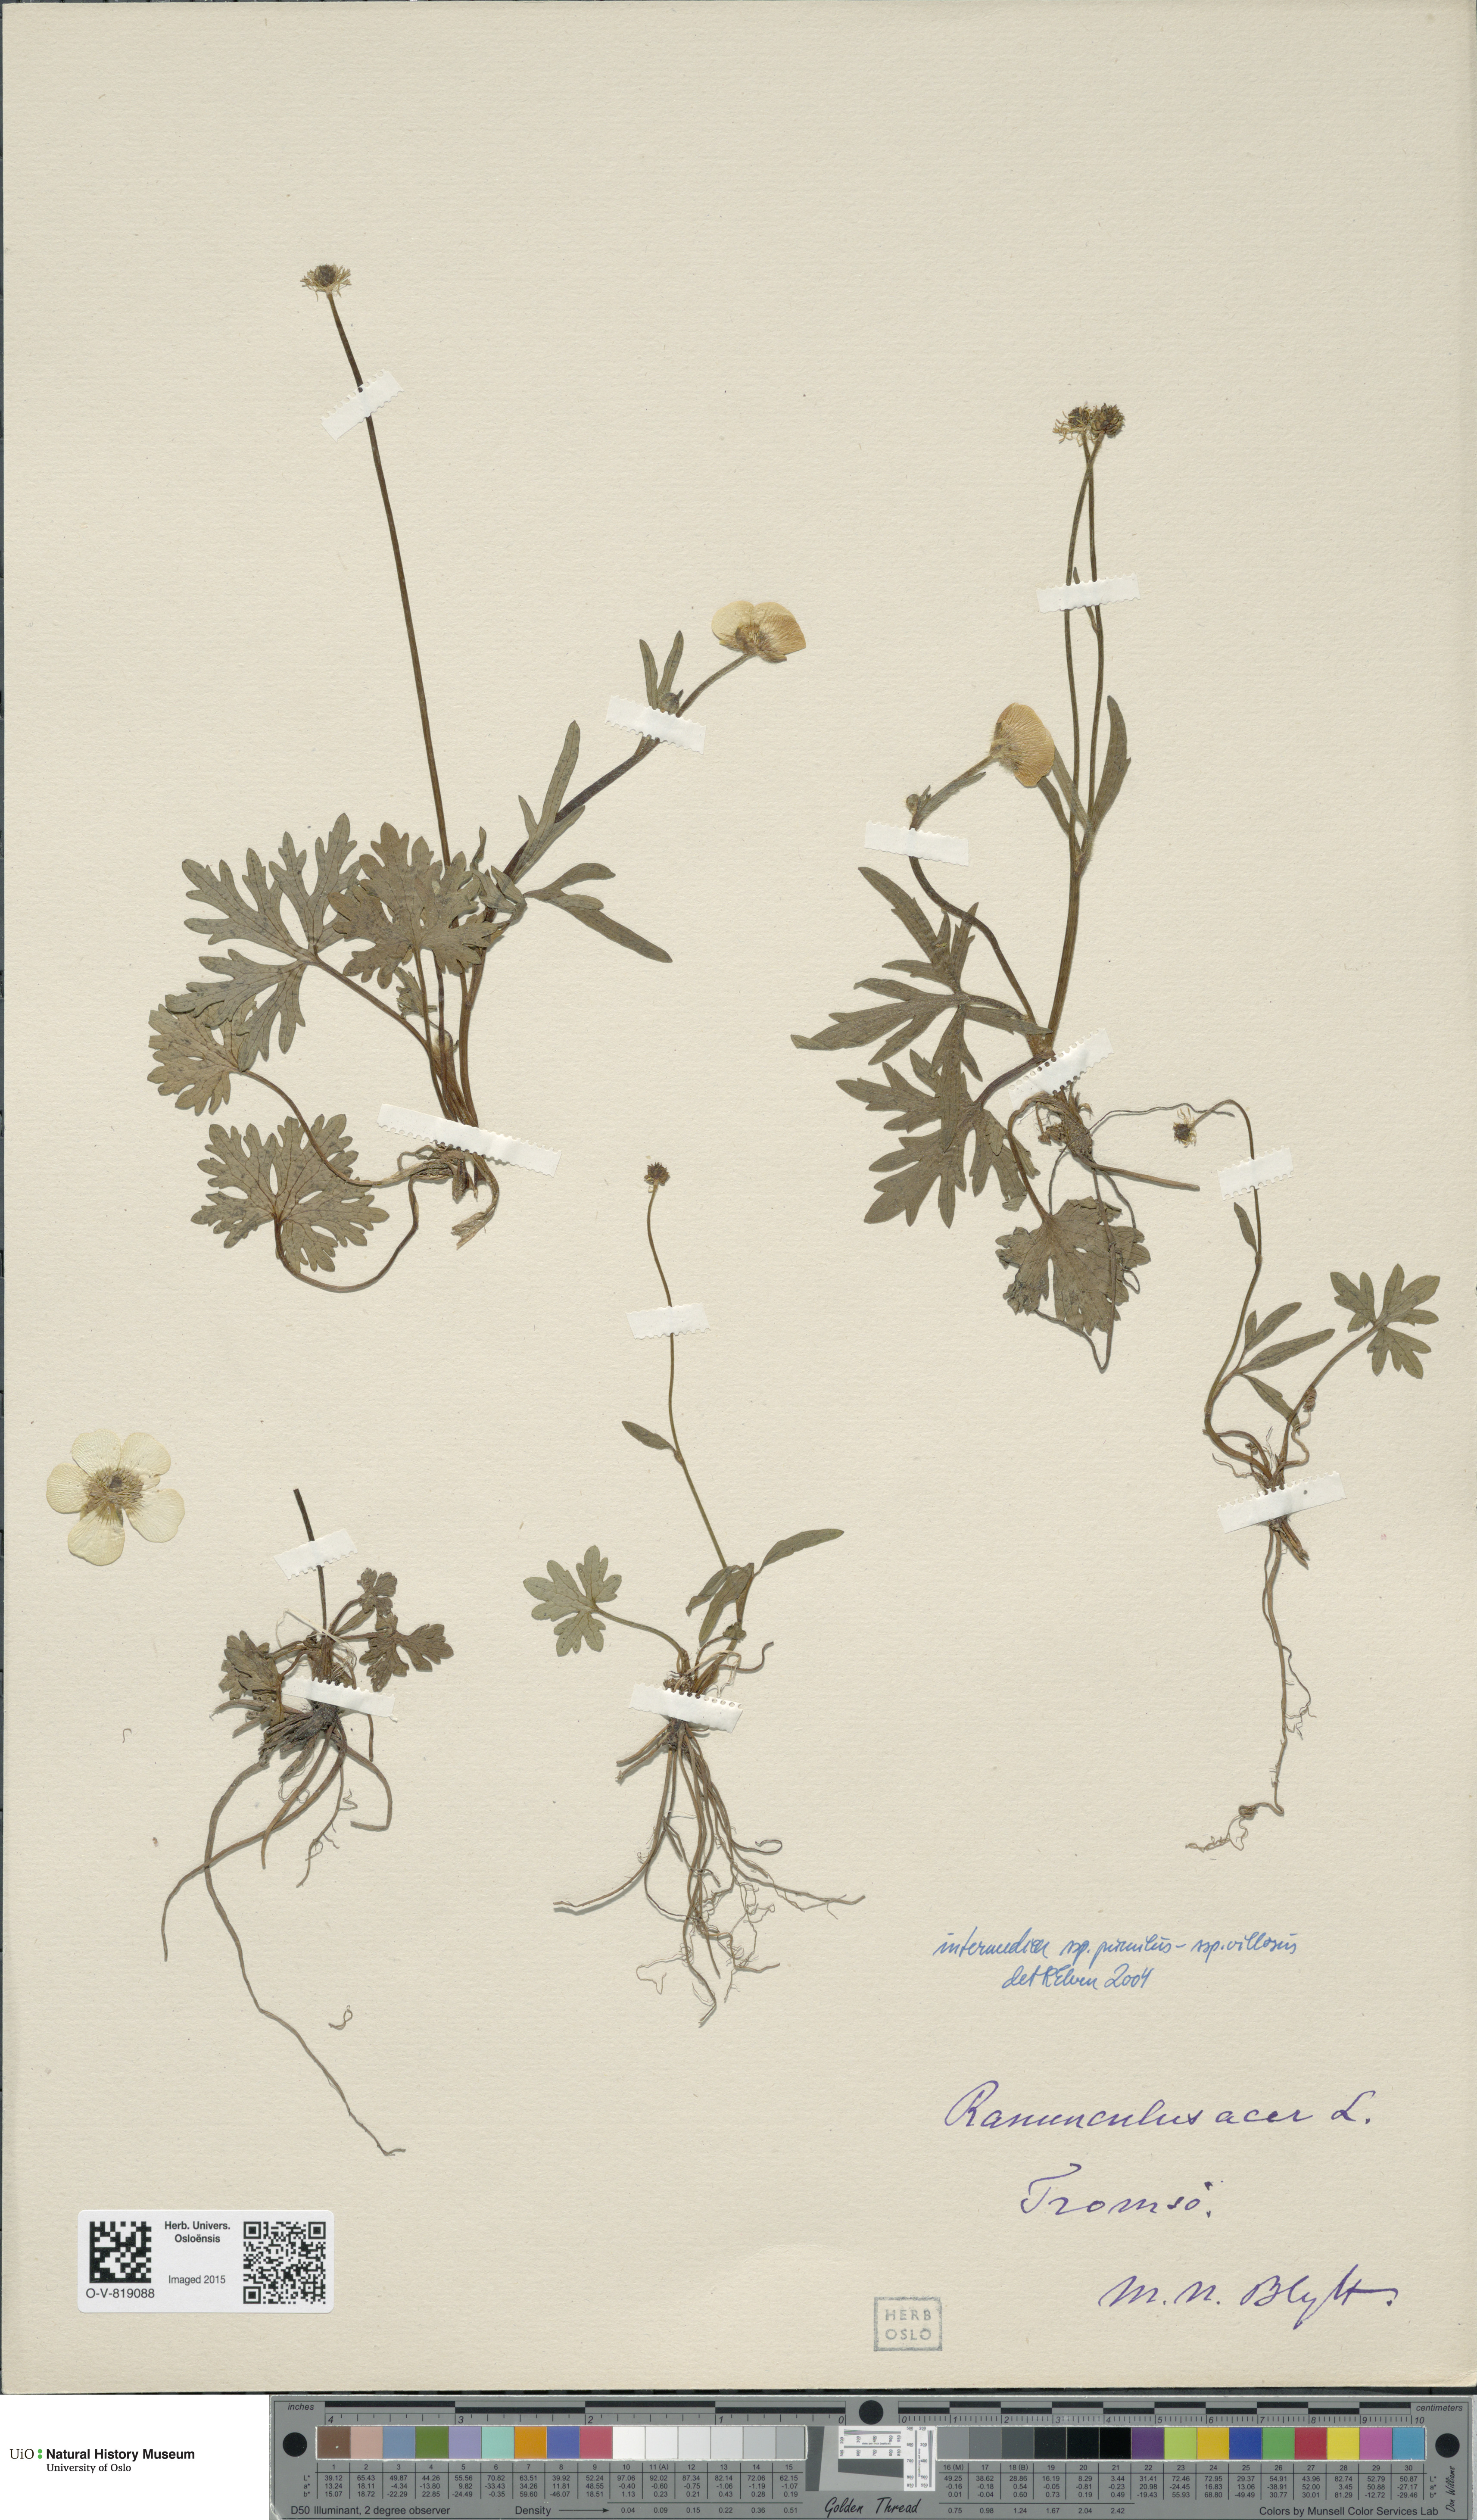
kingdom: Plantae
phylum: Tracheophyta
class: Magnoliopsida
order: Ranunculales
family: Ranunculaceae
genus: Ranunculus
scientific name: Ranunculus
